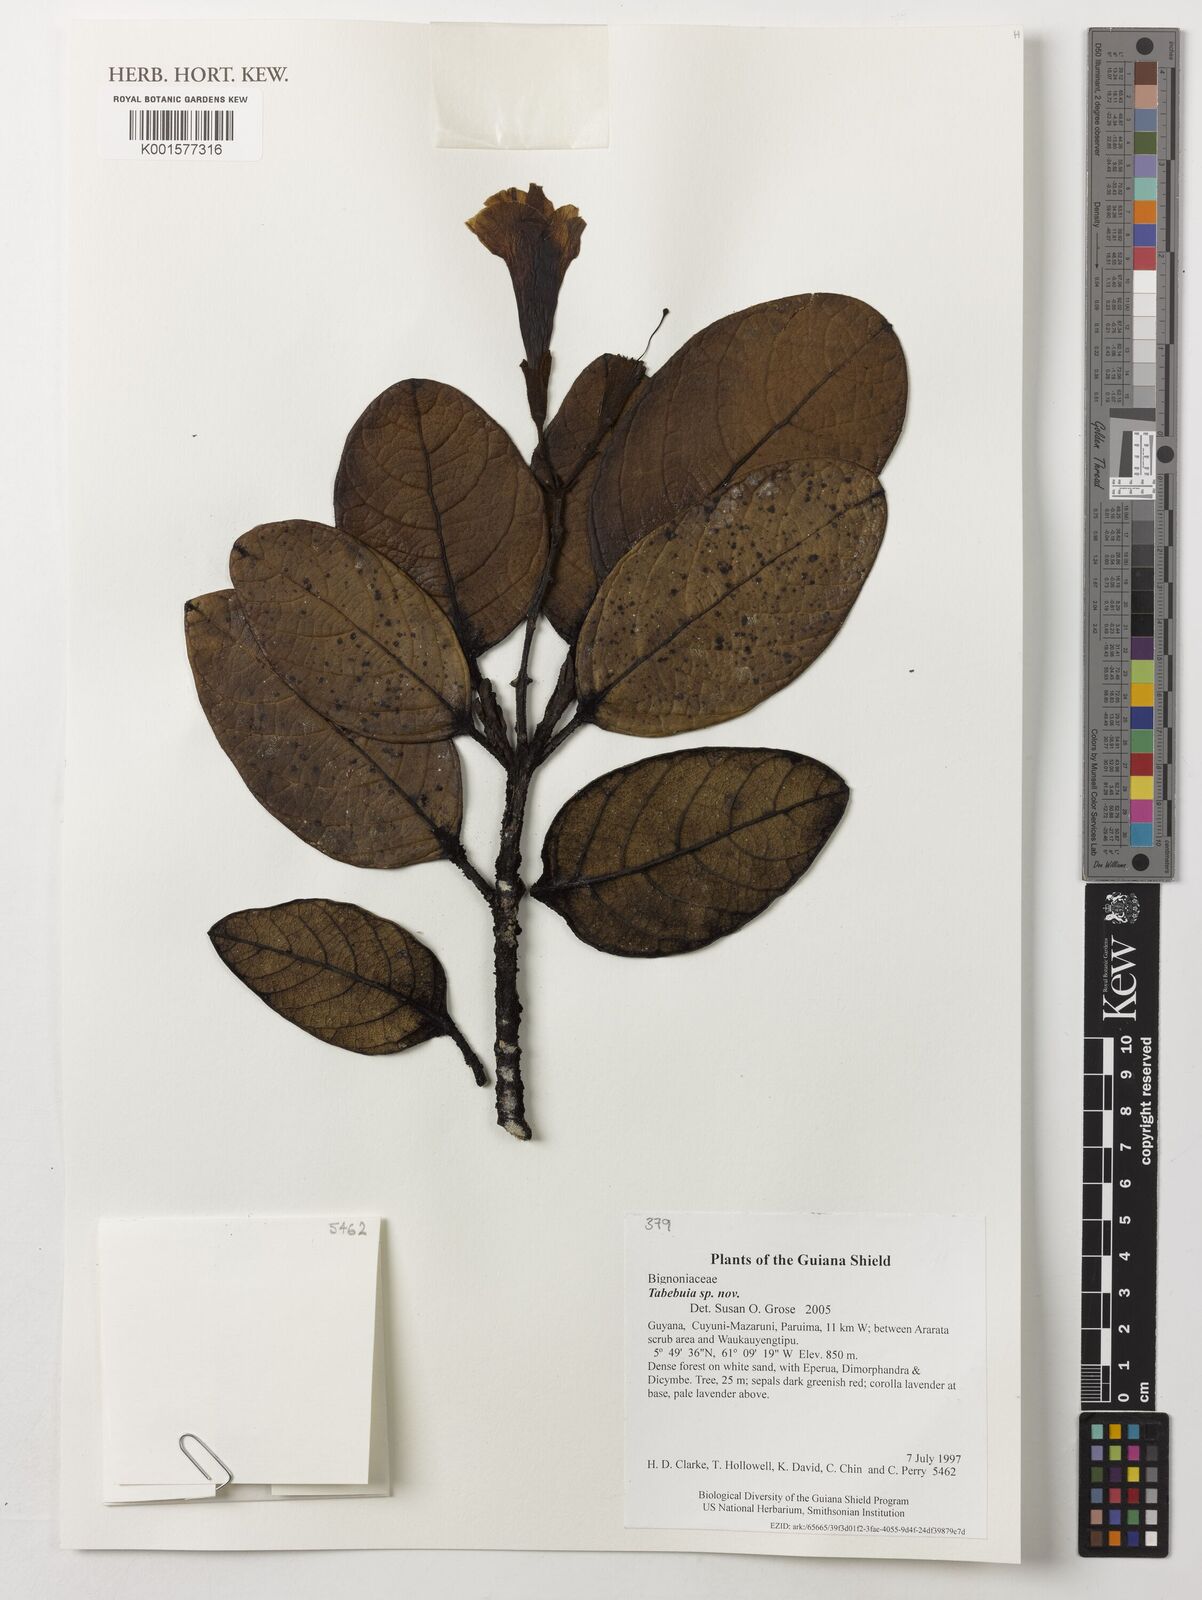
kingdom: Plantae
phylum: Tracheophyta
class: Magnoliopsida
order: Lamiales
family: Bignoniaceae
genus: Tabebuia
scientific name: Tabebuia
